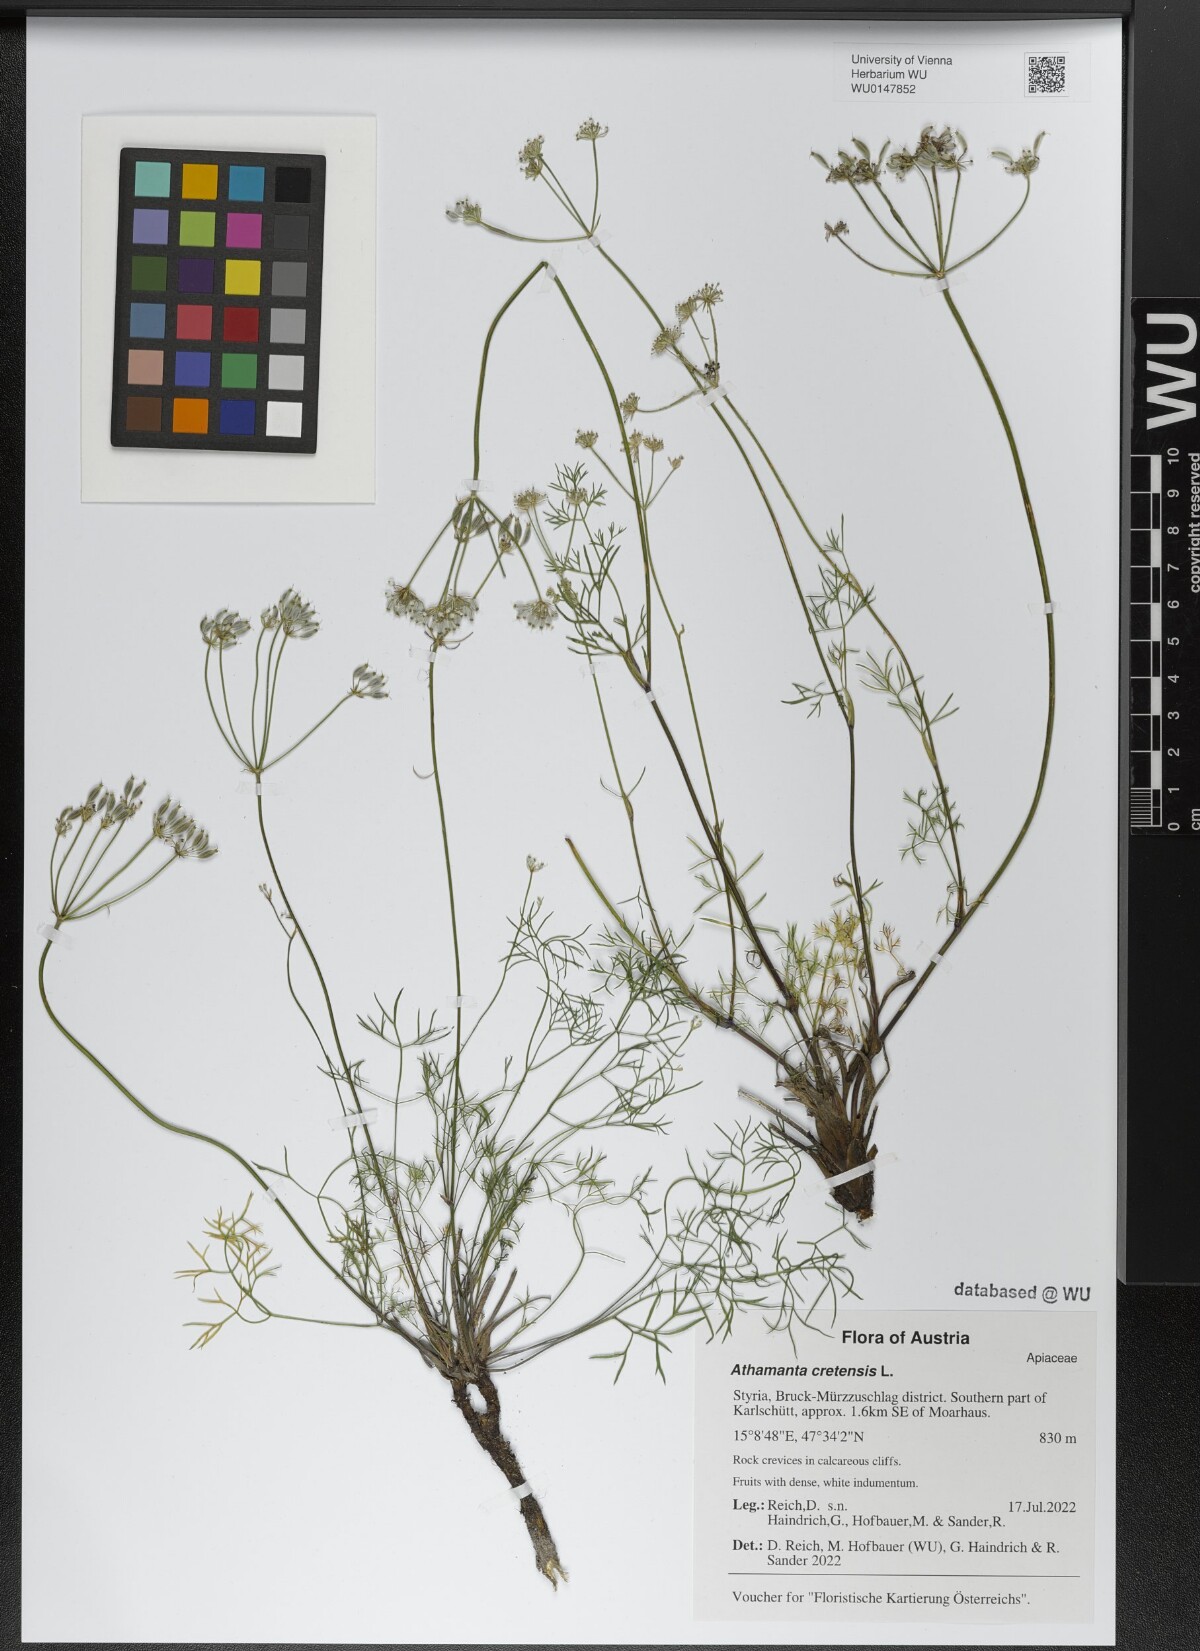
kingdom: Plantae
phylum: Tracheophyta
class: Magnoliopsida
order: Apiales
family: Apiaceae
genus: Athamanta
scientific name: Athamanta cretensis
